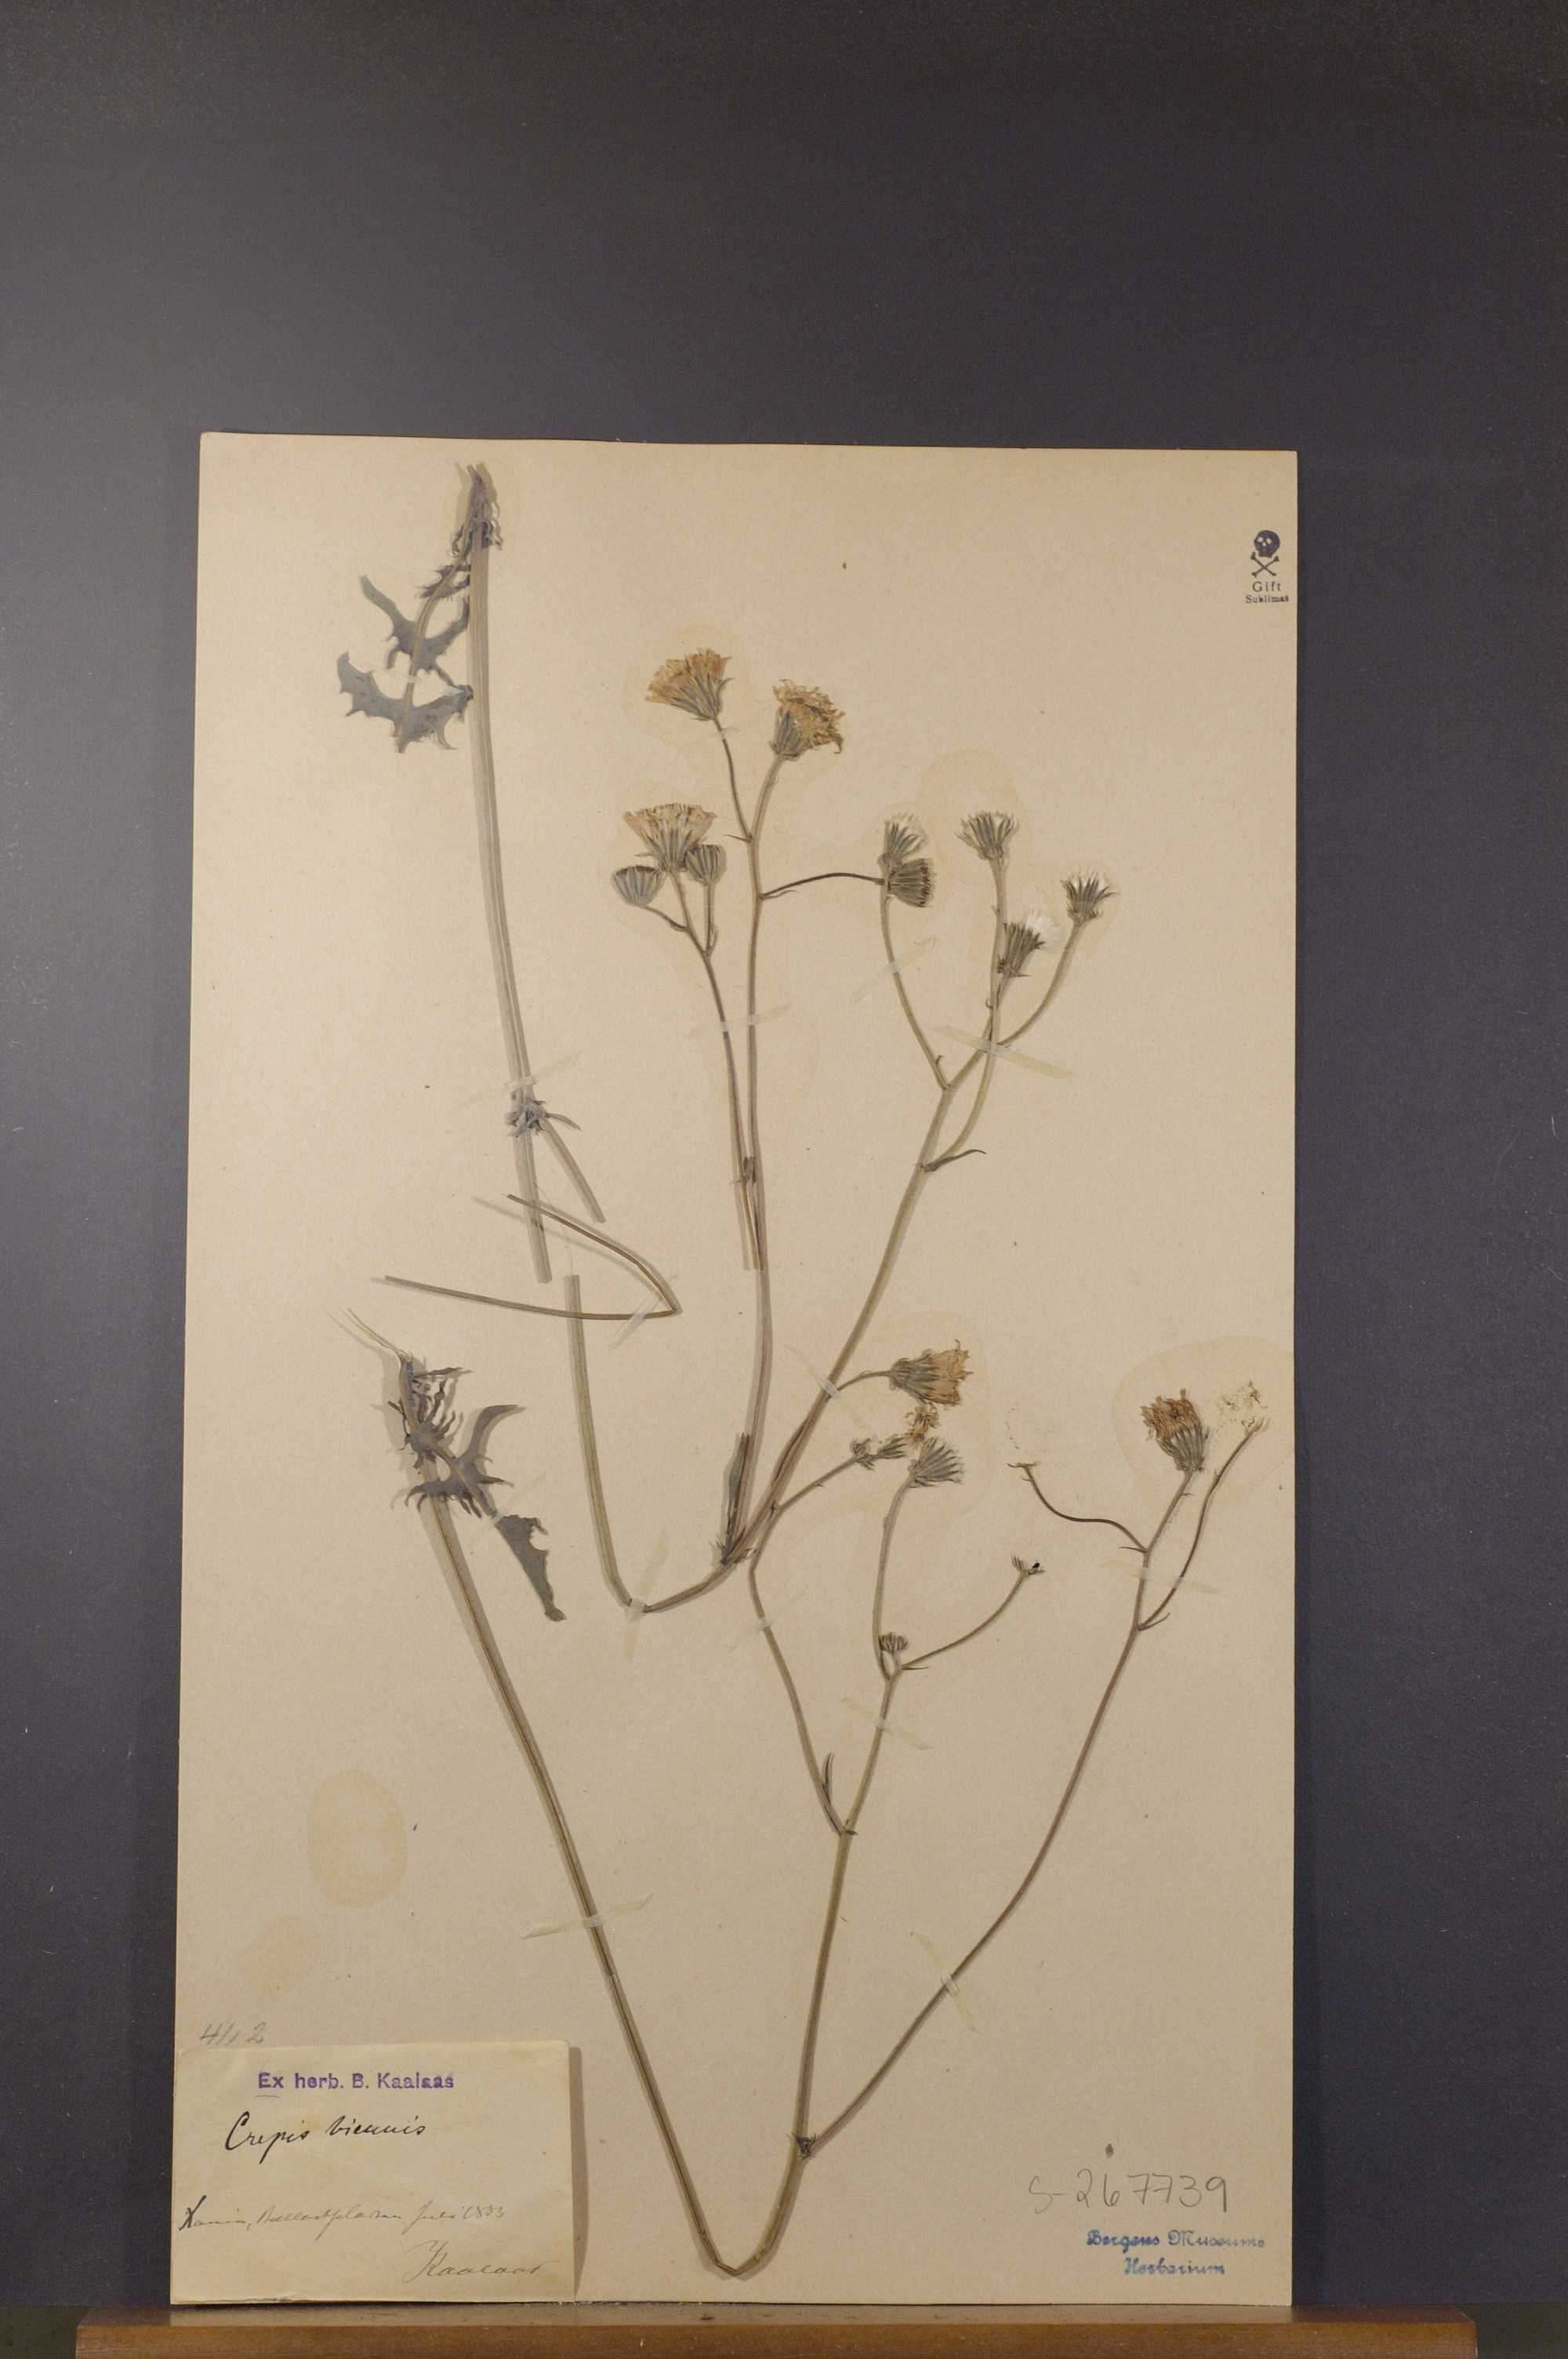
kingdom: Plantae
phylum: Tracheophyta
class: Magnoliopsida
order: Asterales
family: Asteraceae
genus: Crepis
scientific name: Crepis biennis
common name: Rough hawk's-beard
